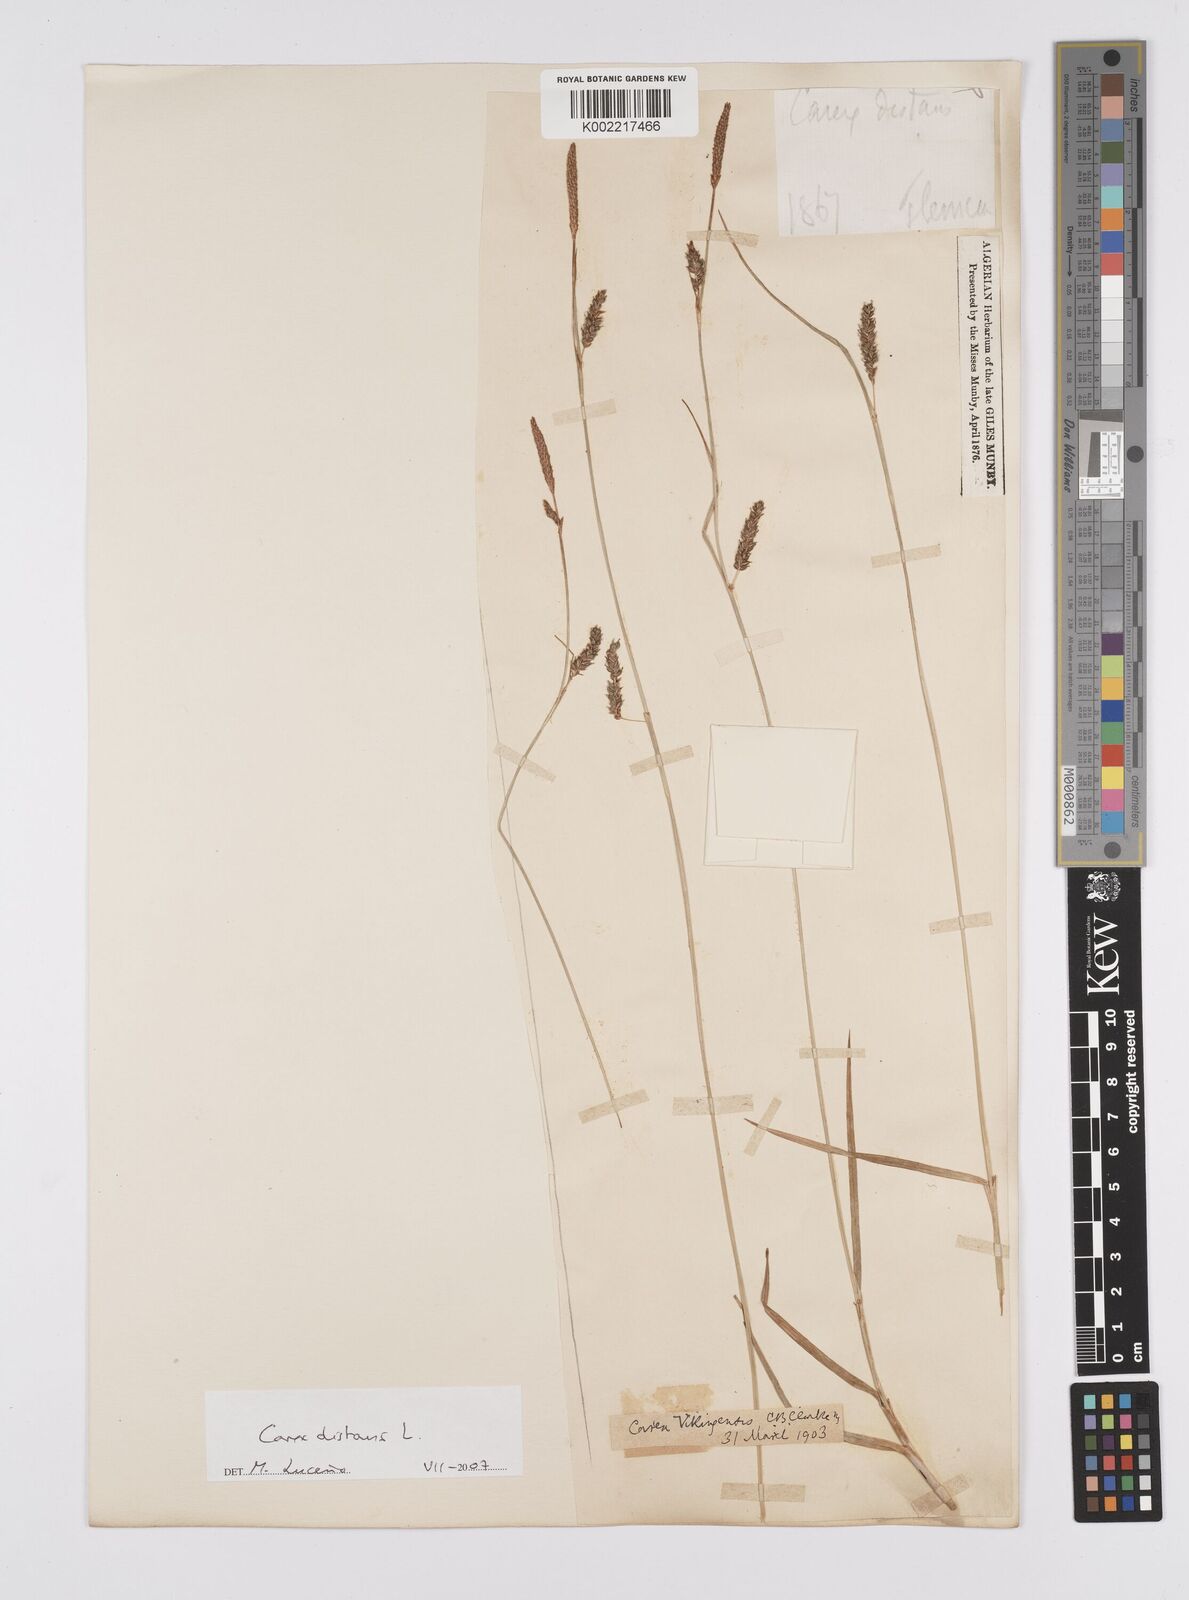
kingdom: Plantae
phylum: Tracheophyta
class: Liliopsida
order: Poales
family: Cyperaceae
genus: Carex
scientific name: Carex distans
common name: Distant sedge
